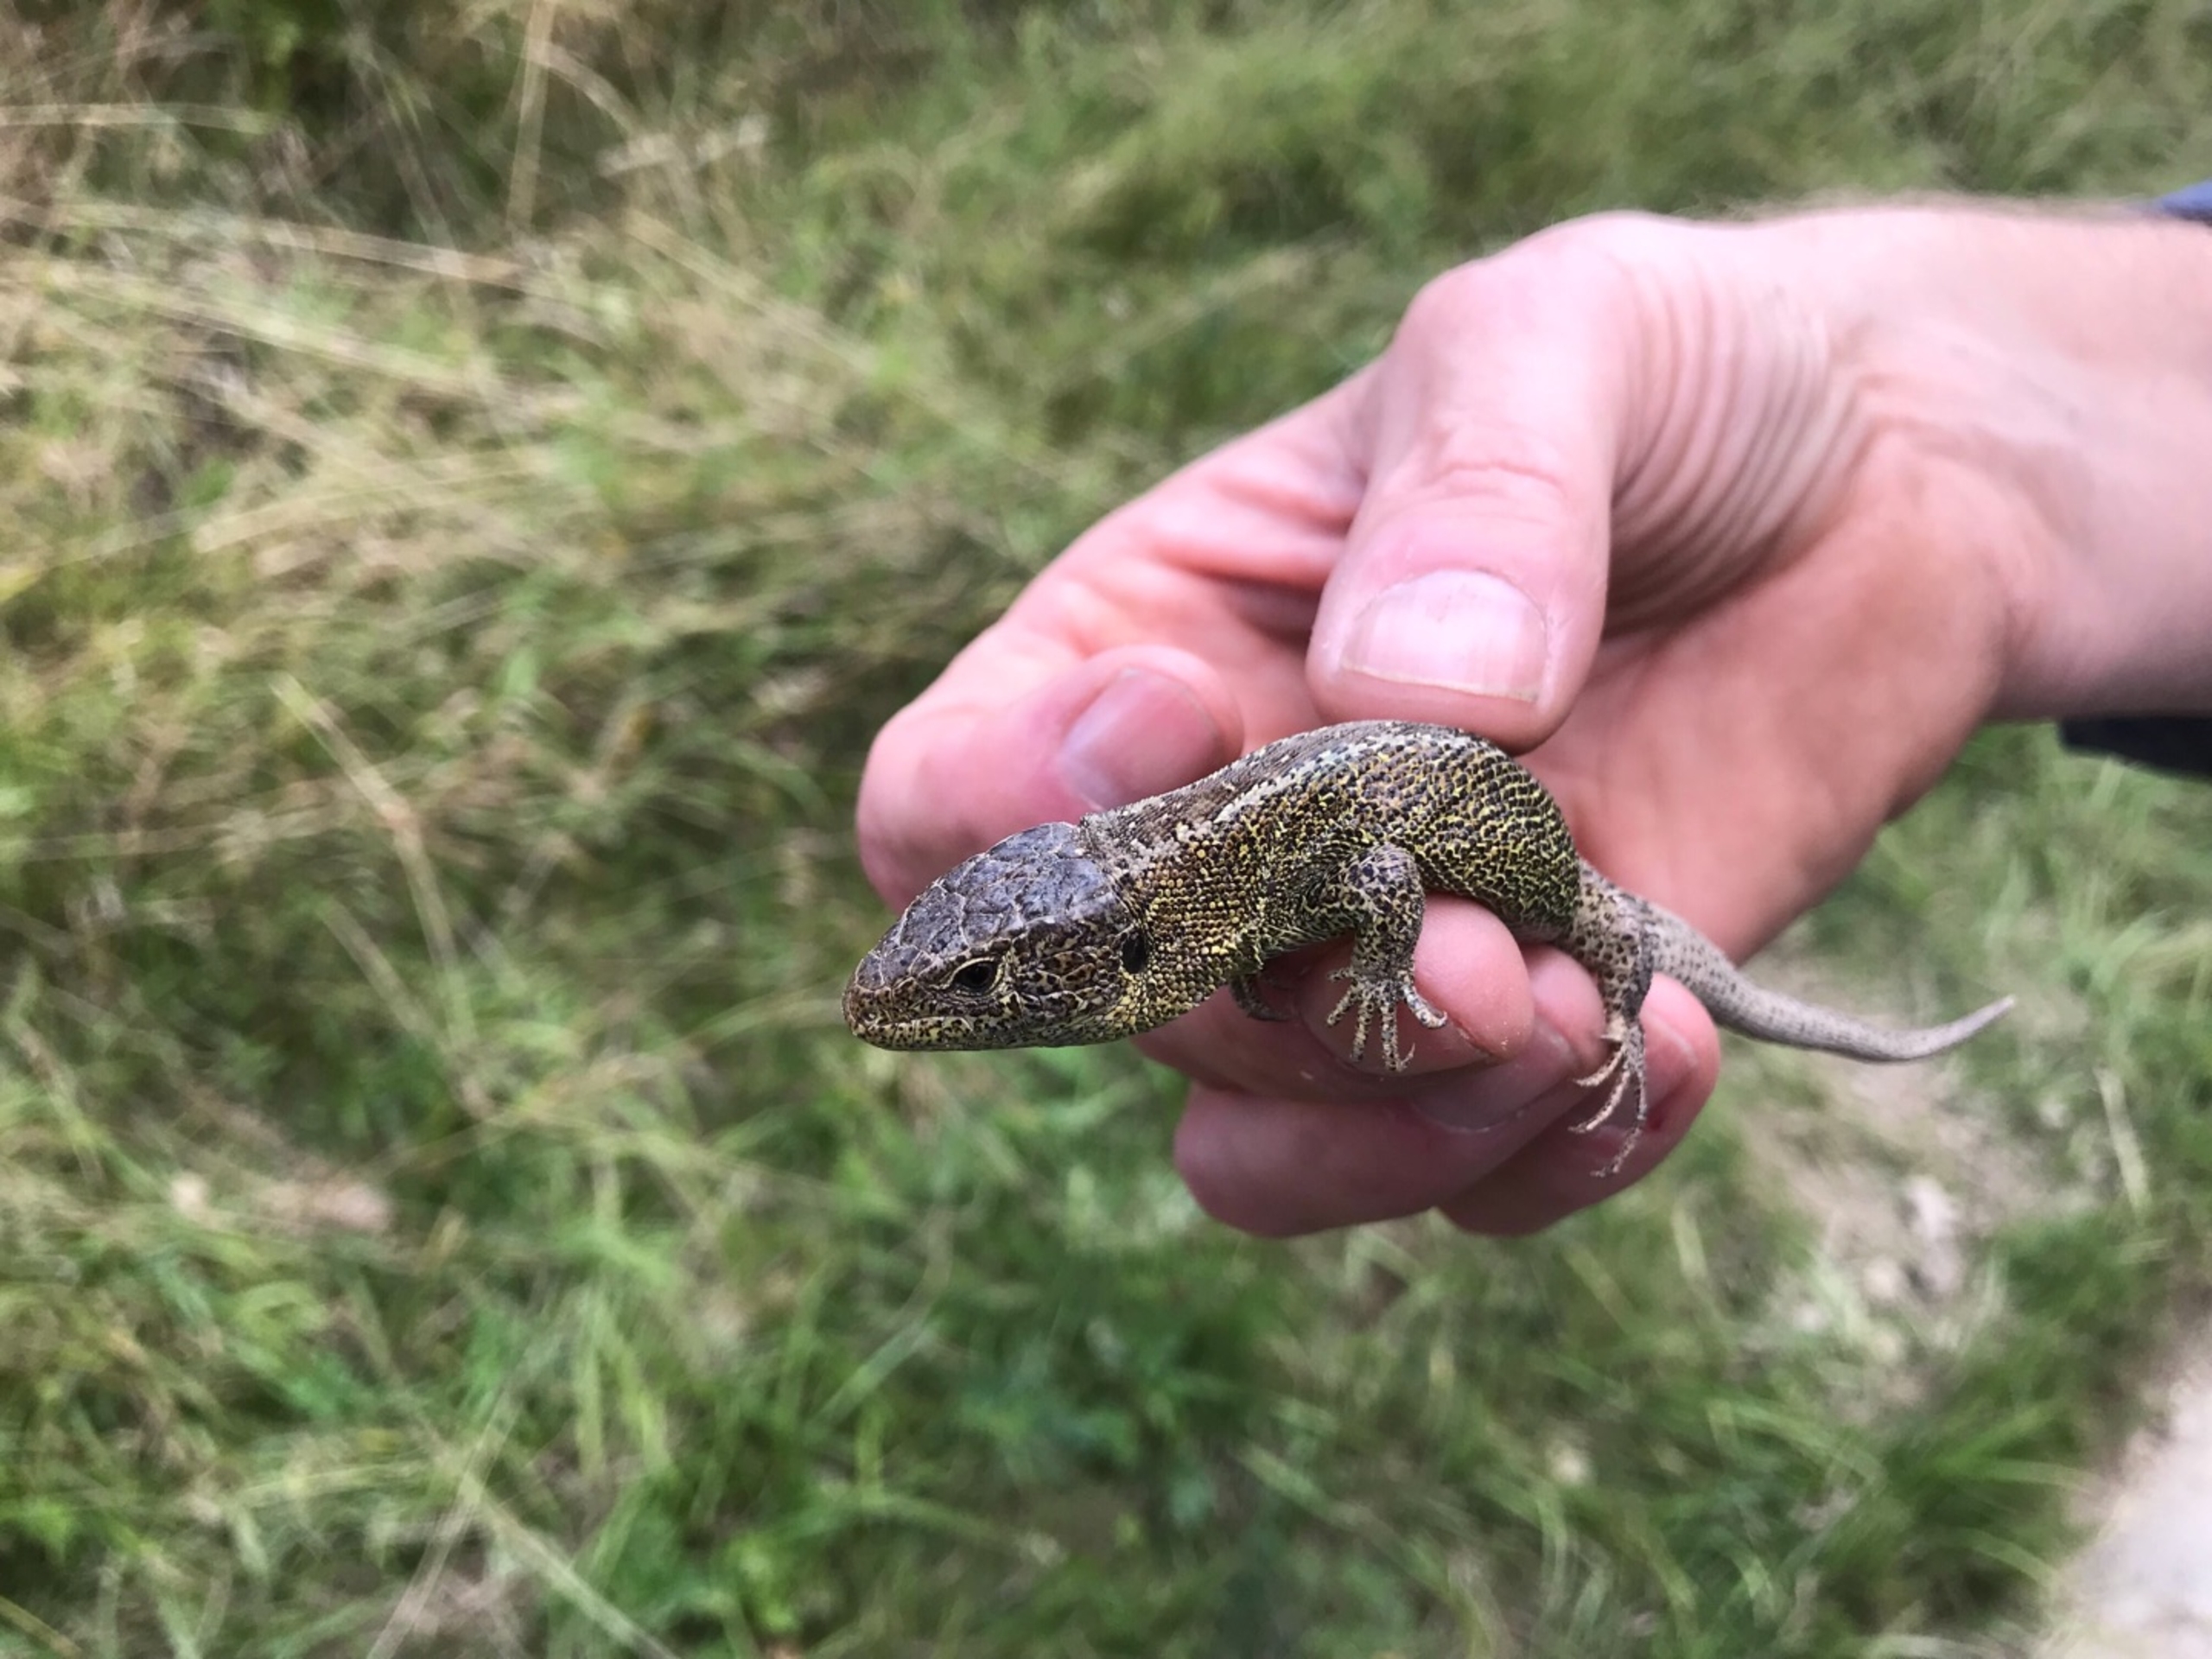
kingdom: Animalia
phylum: Chordata
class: Squamata
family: Lacertidae
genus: Lacerta
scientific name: Lacerta agilis
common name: Markfirben
